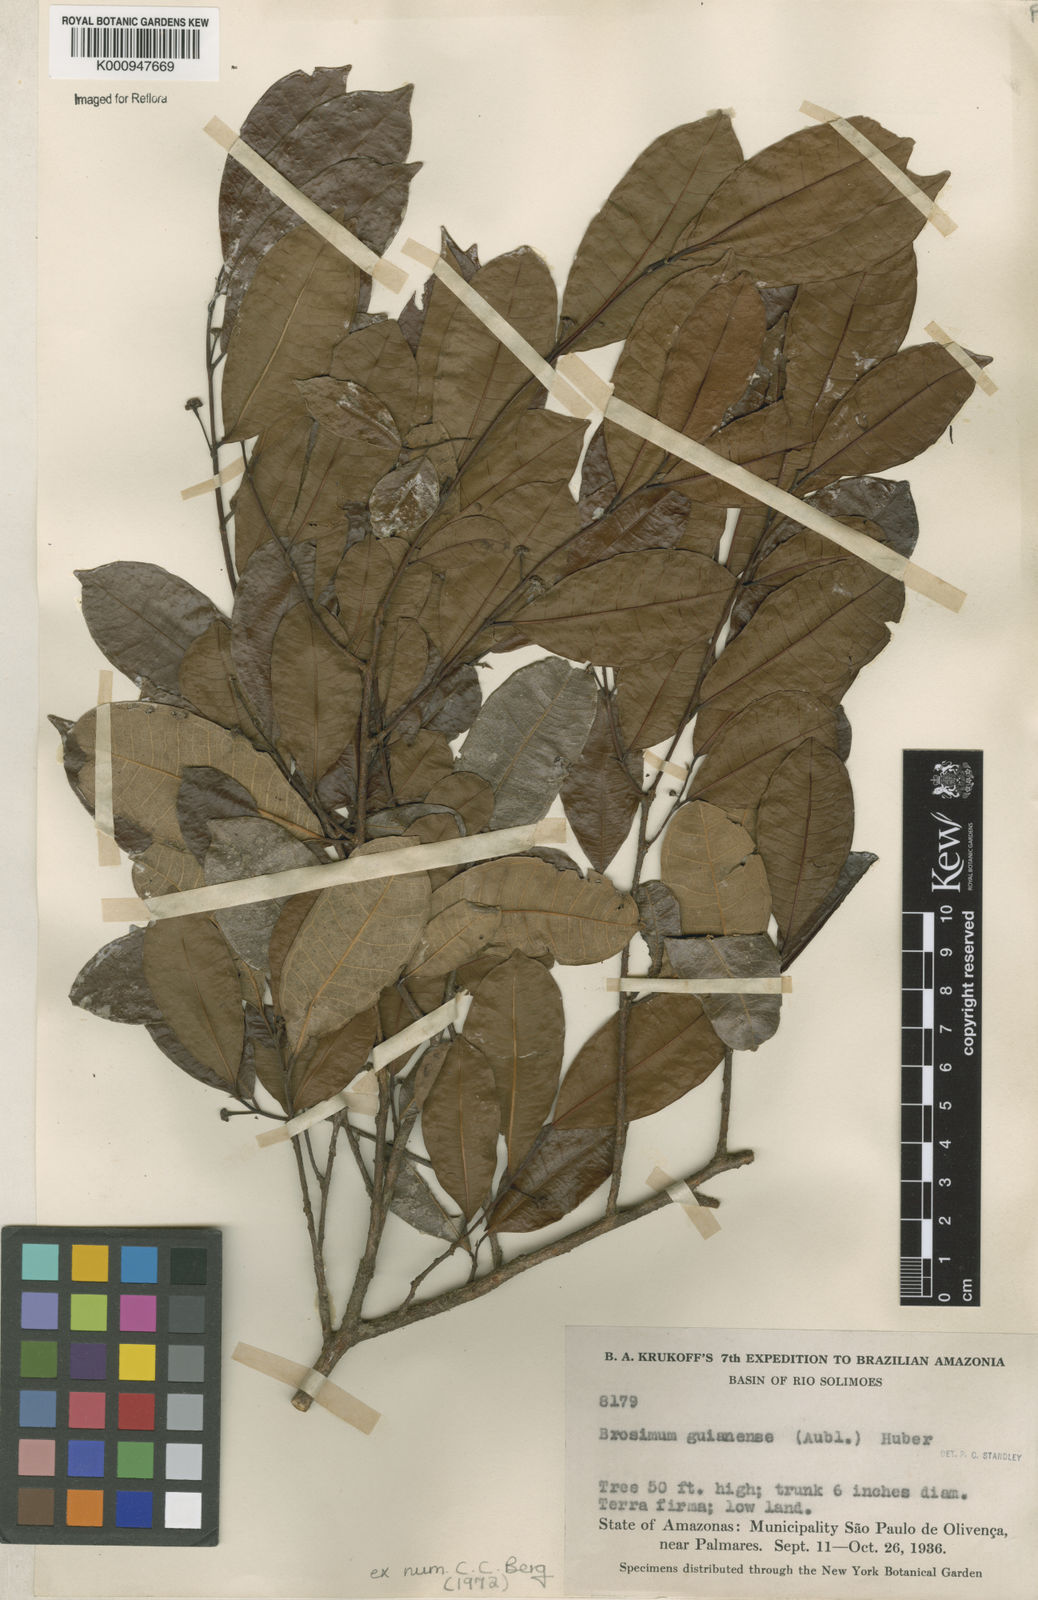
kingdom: Plantae
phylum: Tracheophyta
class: Magnoliopsida
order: Rosales
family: Moraceae
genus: Brosimum
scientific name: Brosimum
